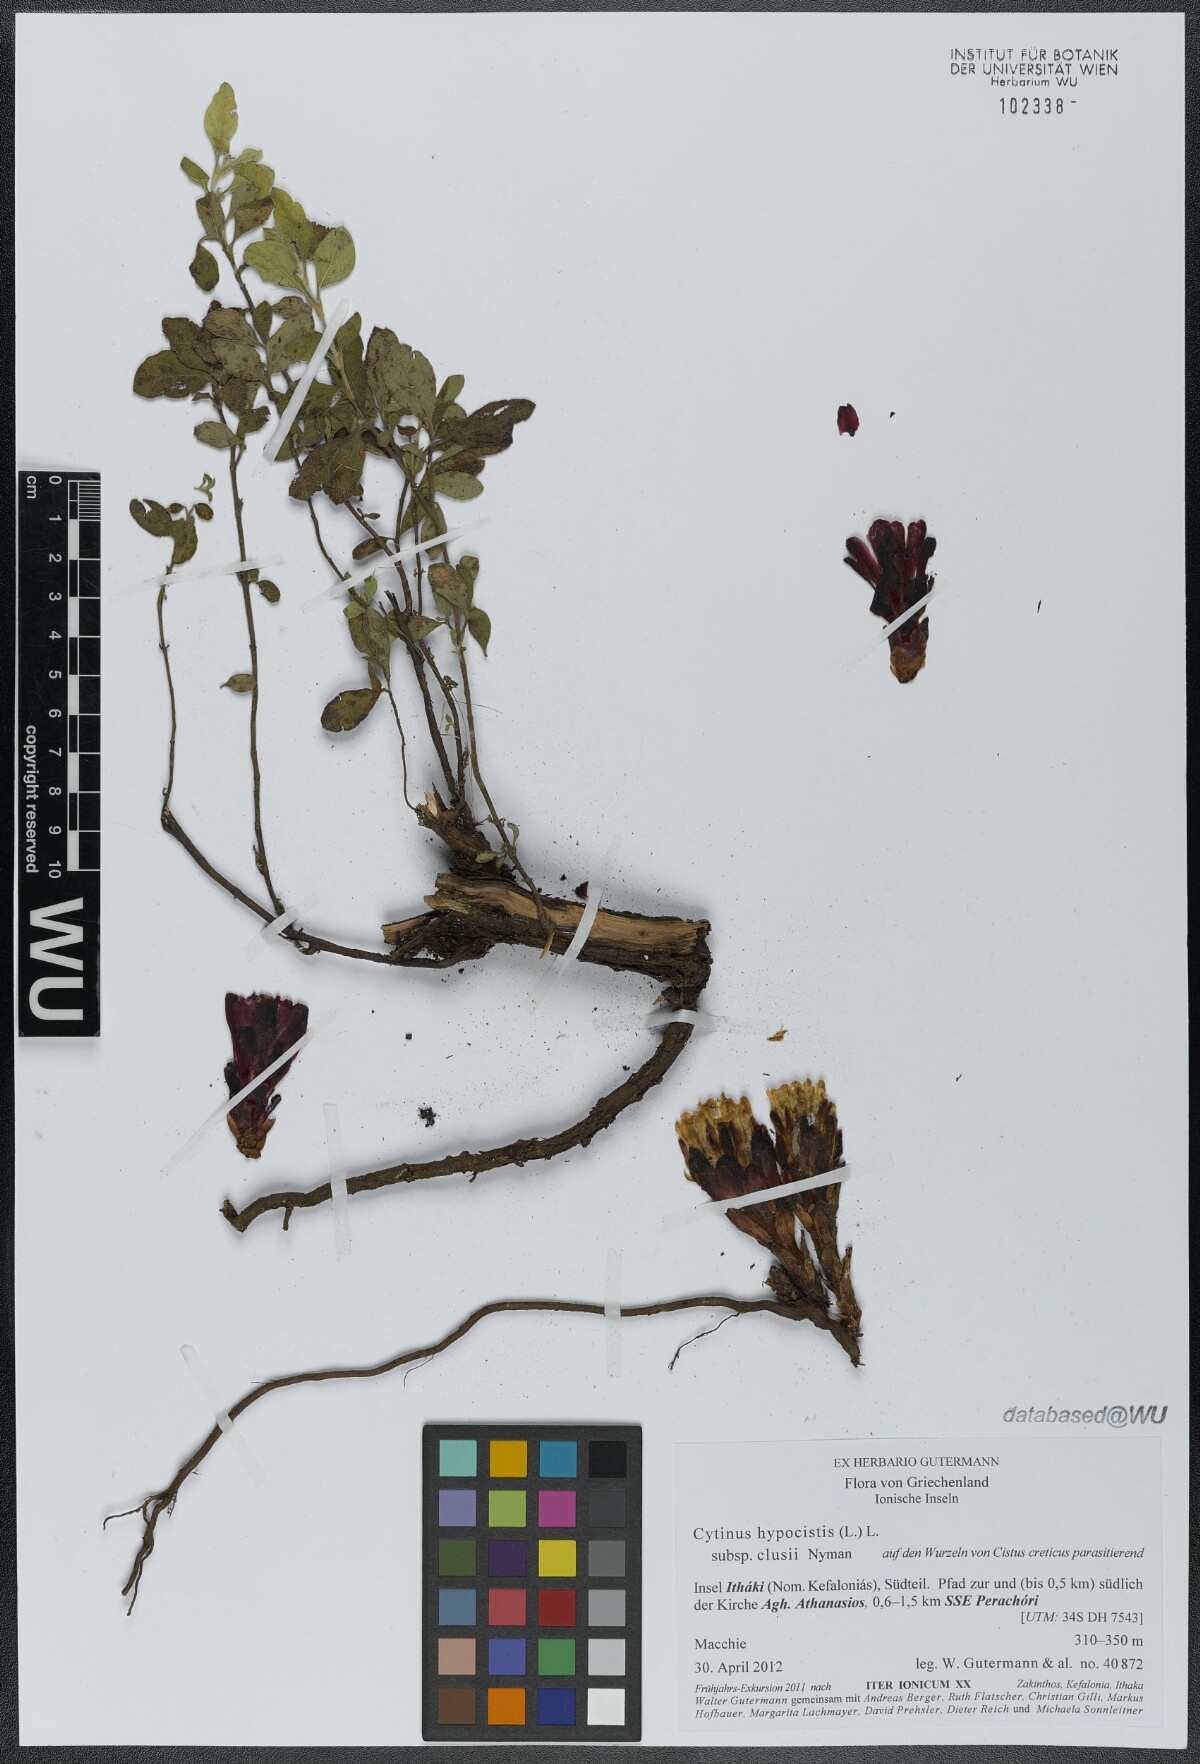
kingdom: Plantae
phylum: Tracheophyta
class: Magnoliopsida
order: Malvales
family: Cytinaceae
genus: Cytinus
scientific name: Cytinus ruber
